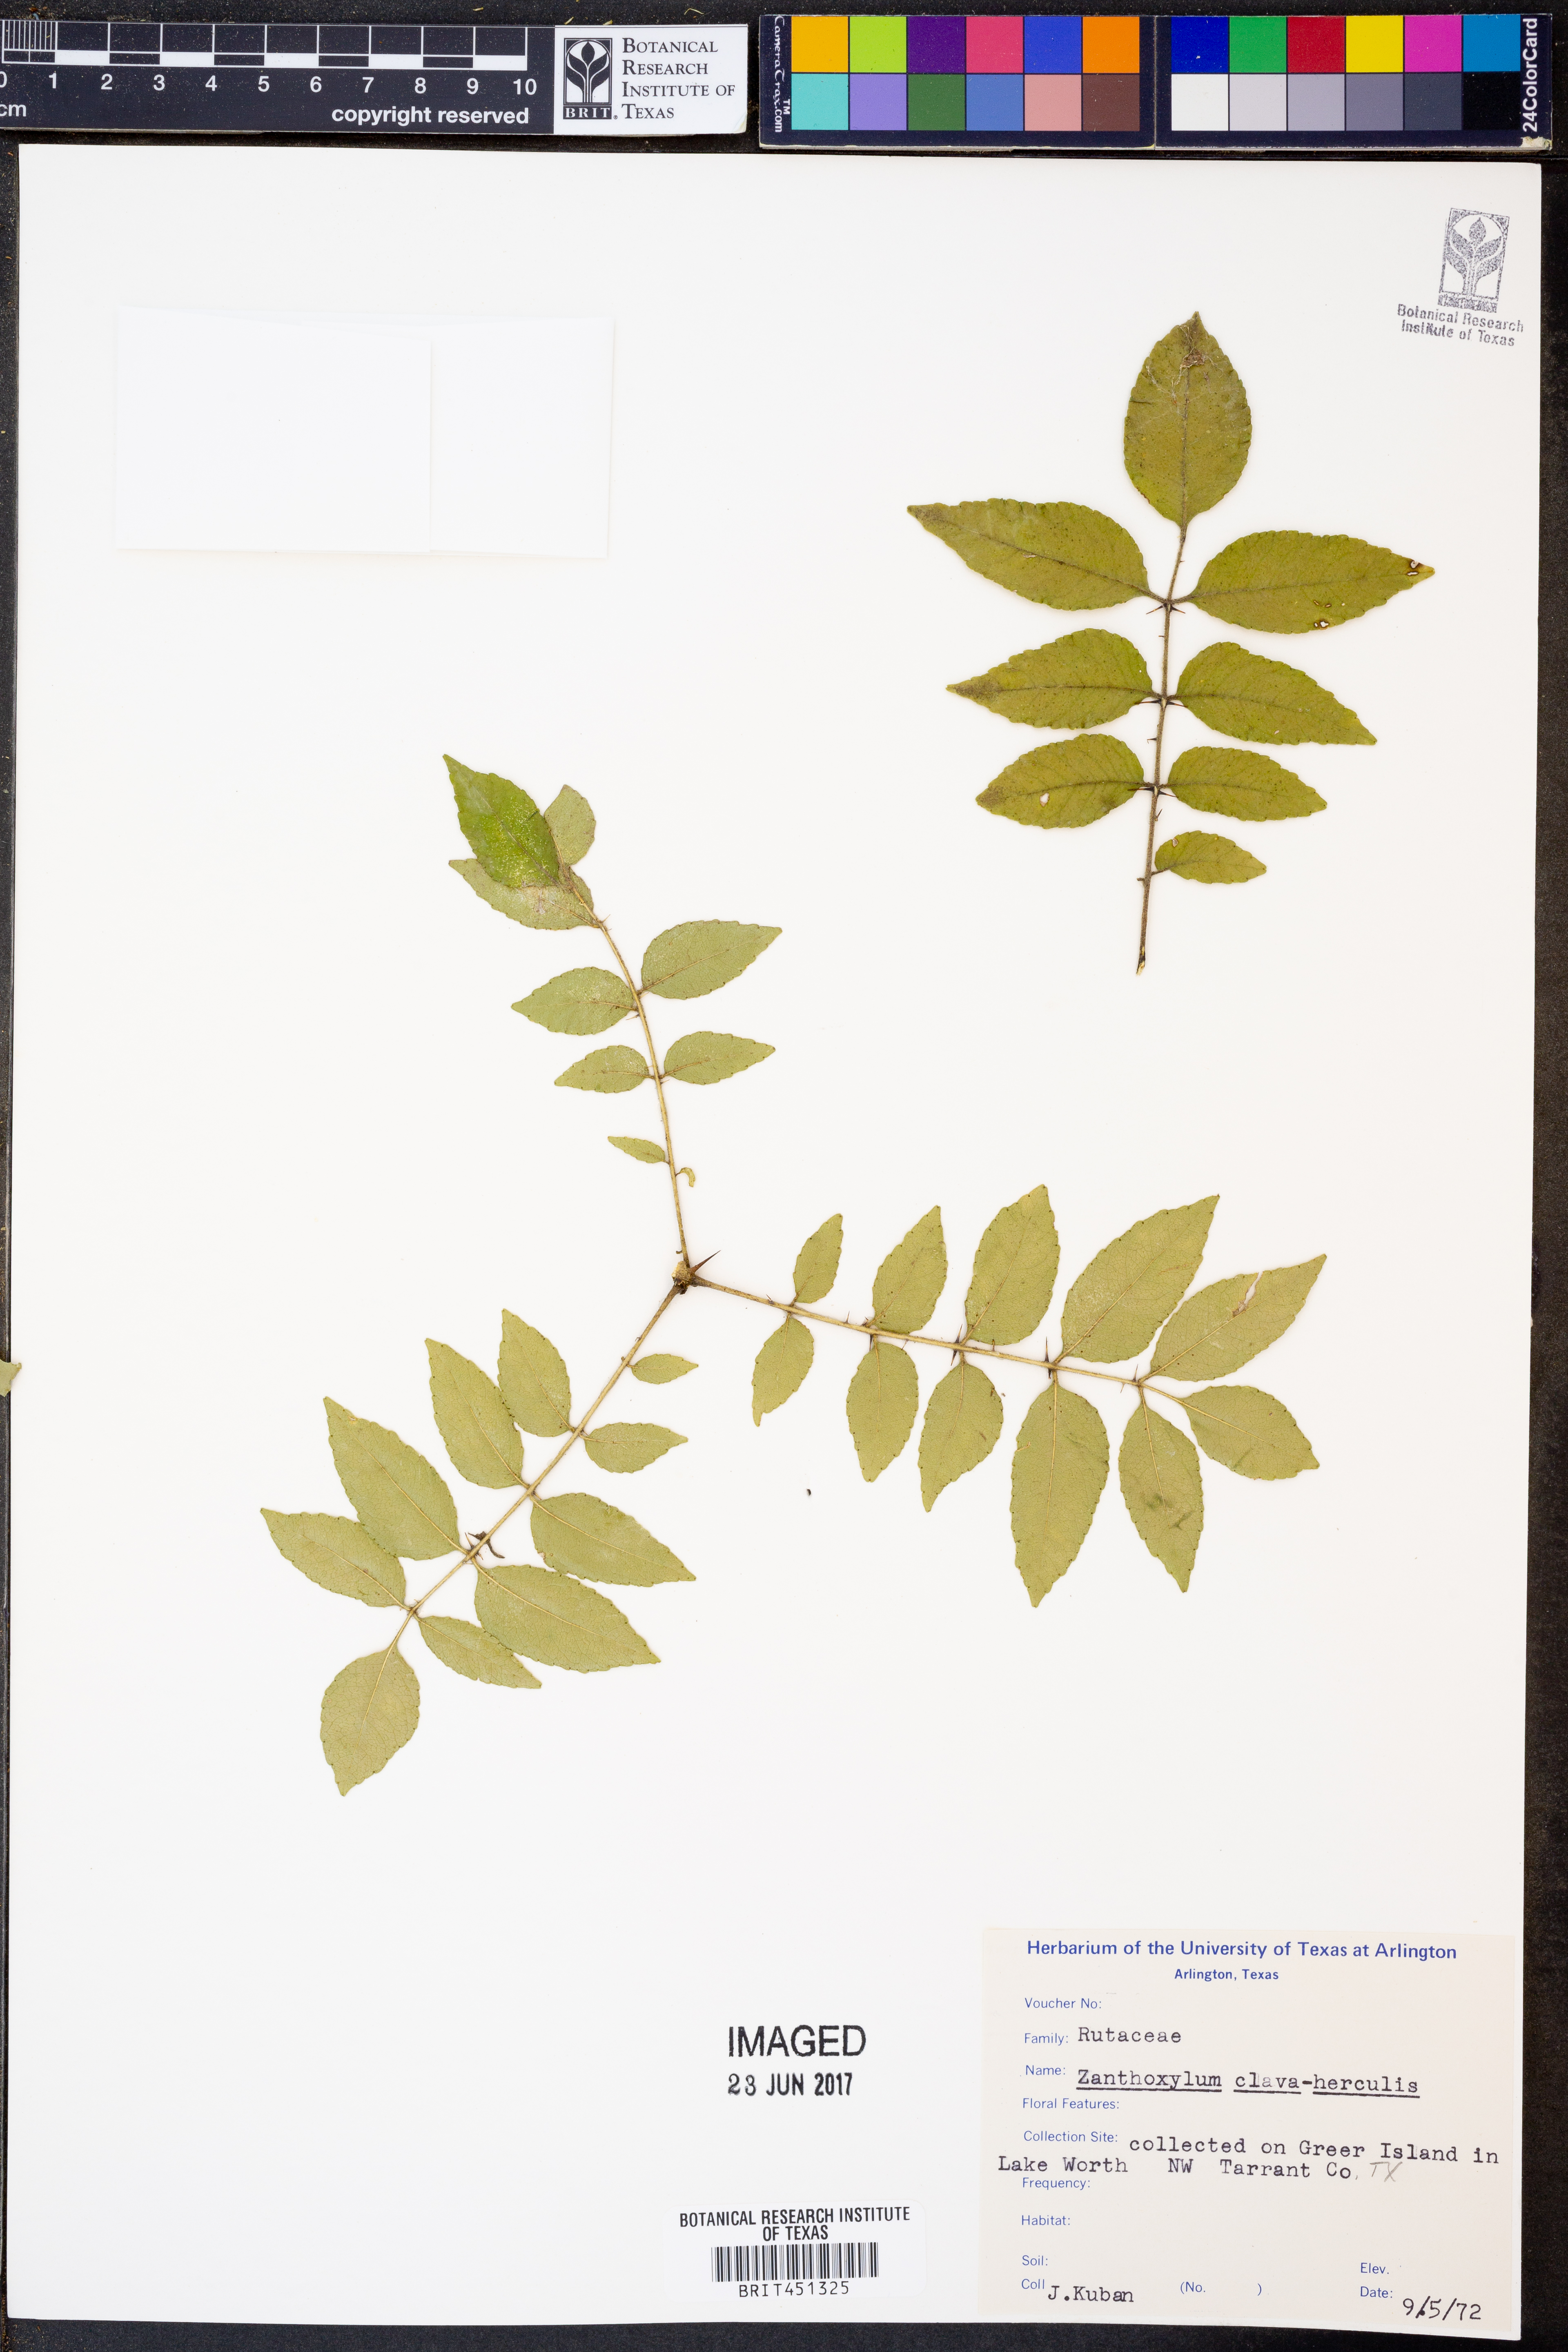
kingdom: Plantae
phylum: Tracheophyta
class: Magnoliopsida
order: Sapindales
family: Rutaceae
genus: Zanthoxylum
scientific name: Zanthoxylum avicennae
